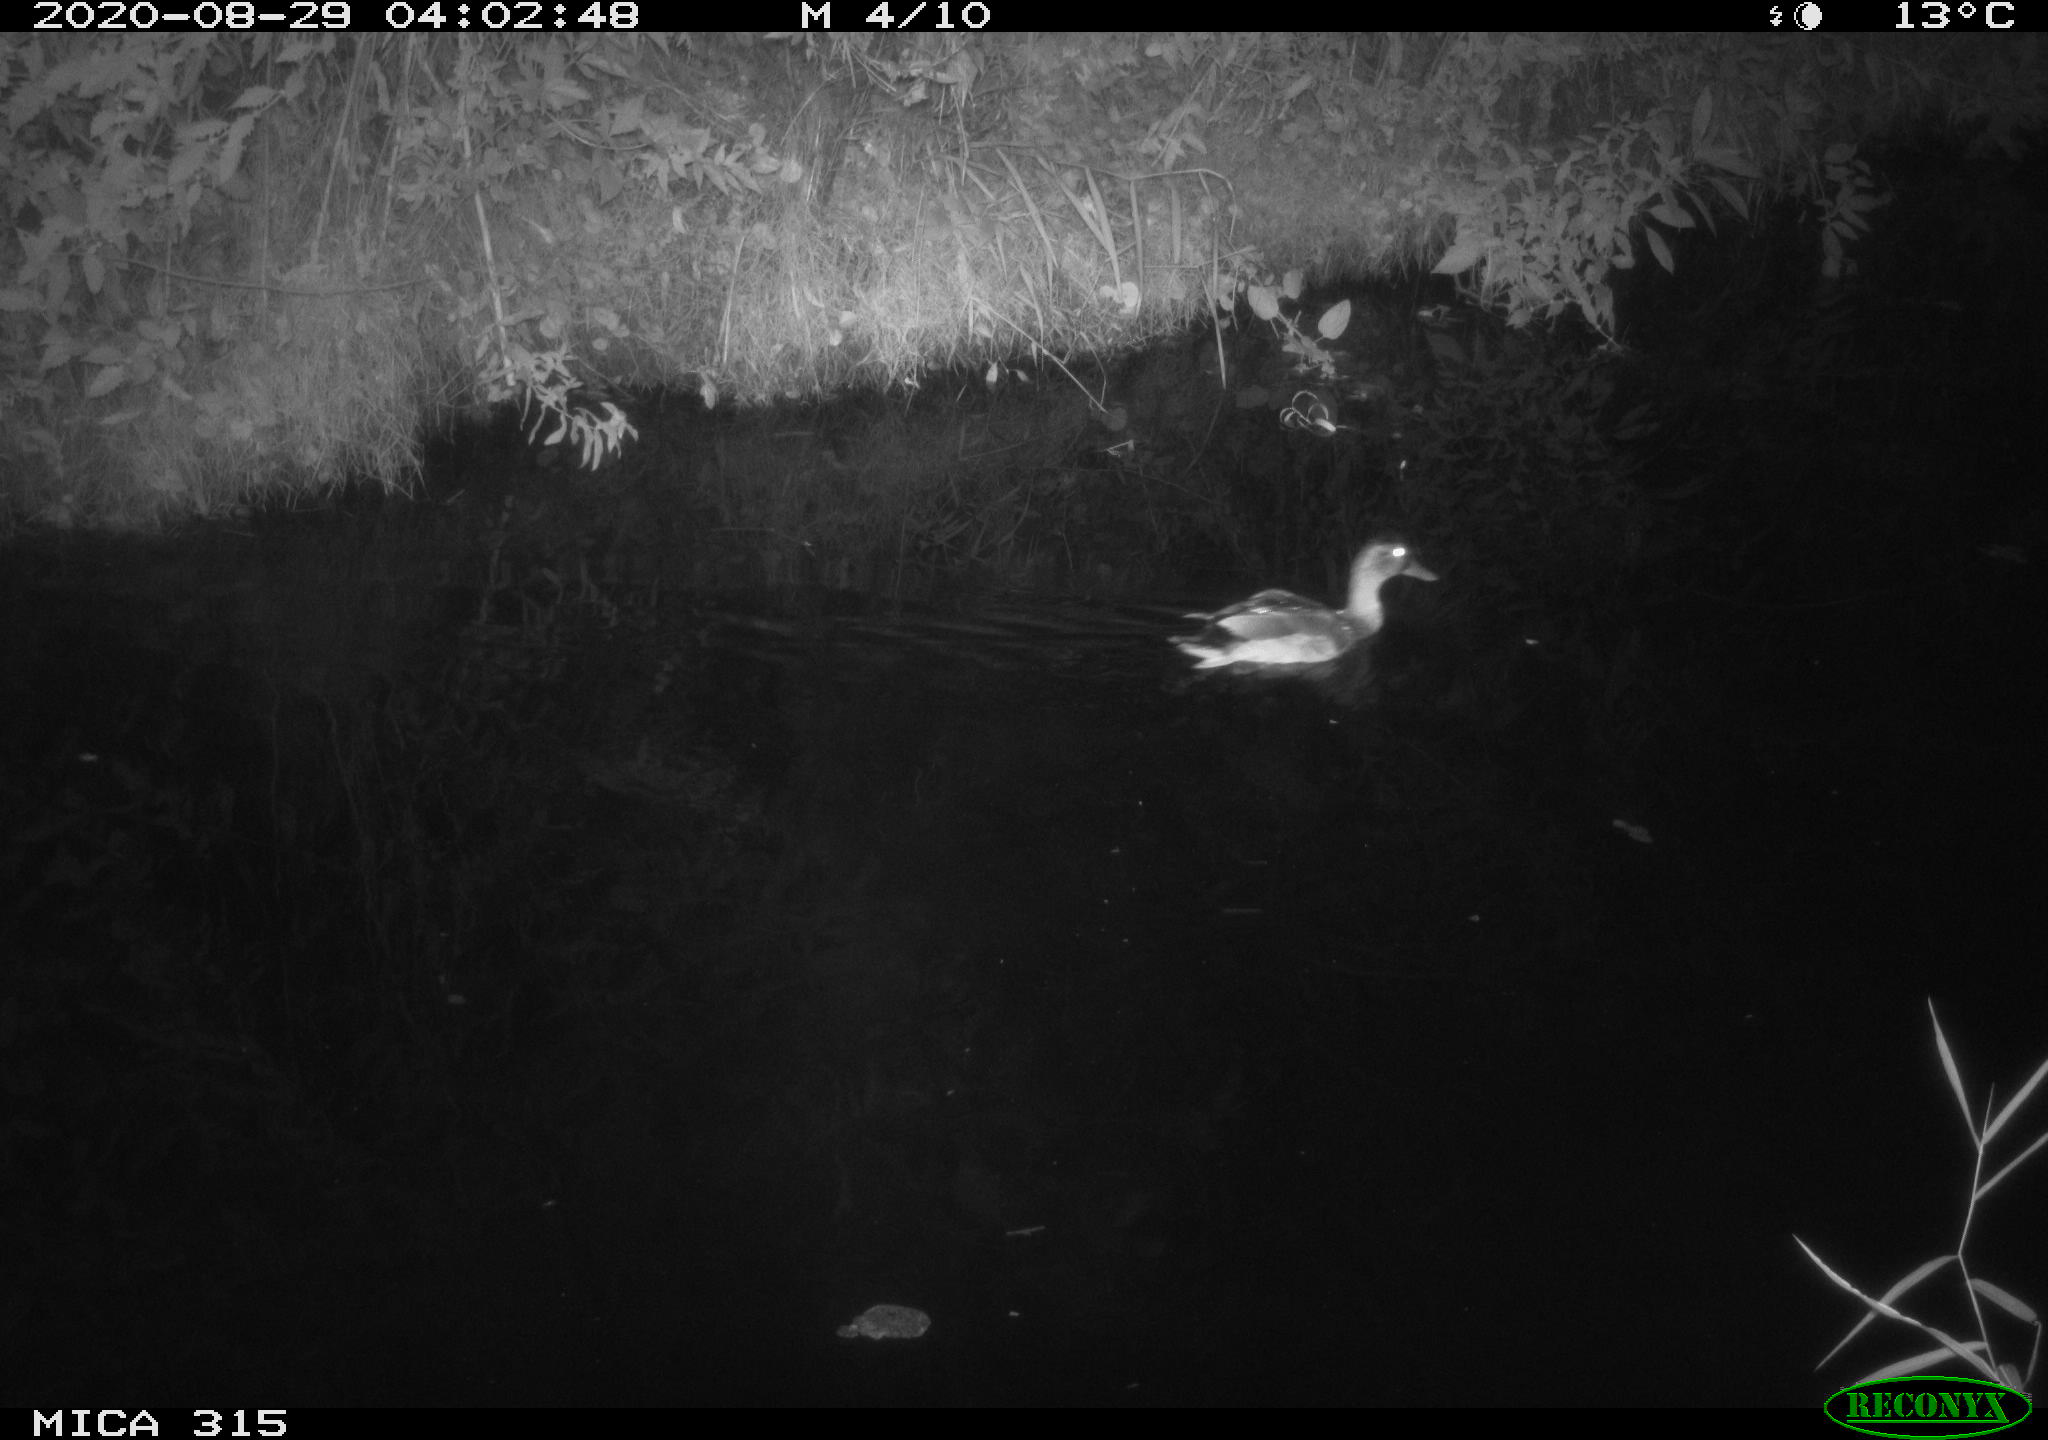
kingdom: Animalia
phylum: Chordata
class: Aves
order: Anseriformes
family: Anatidae
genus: Anas
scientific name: Anas platyrhynchos
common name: Mallard
